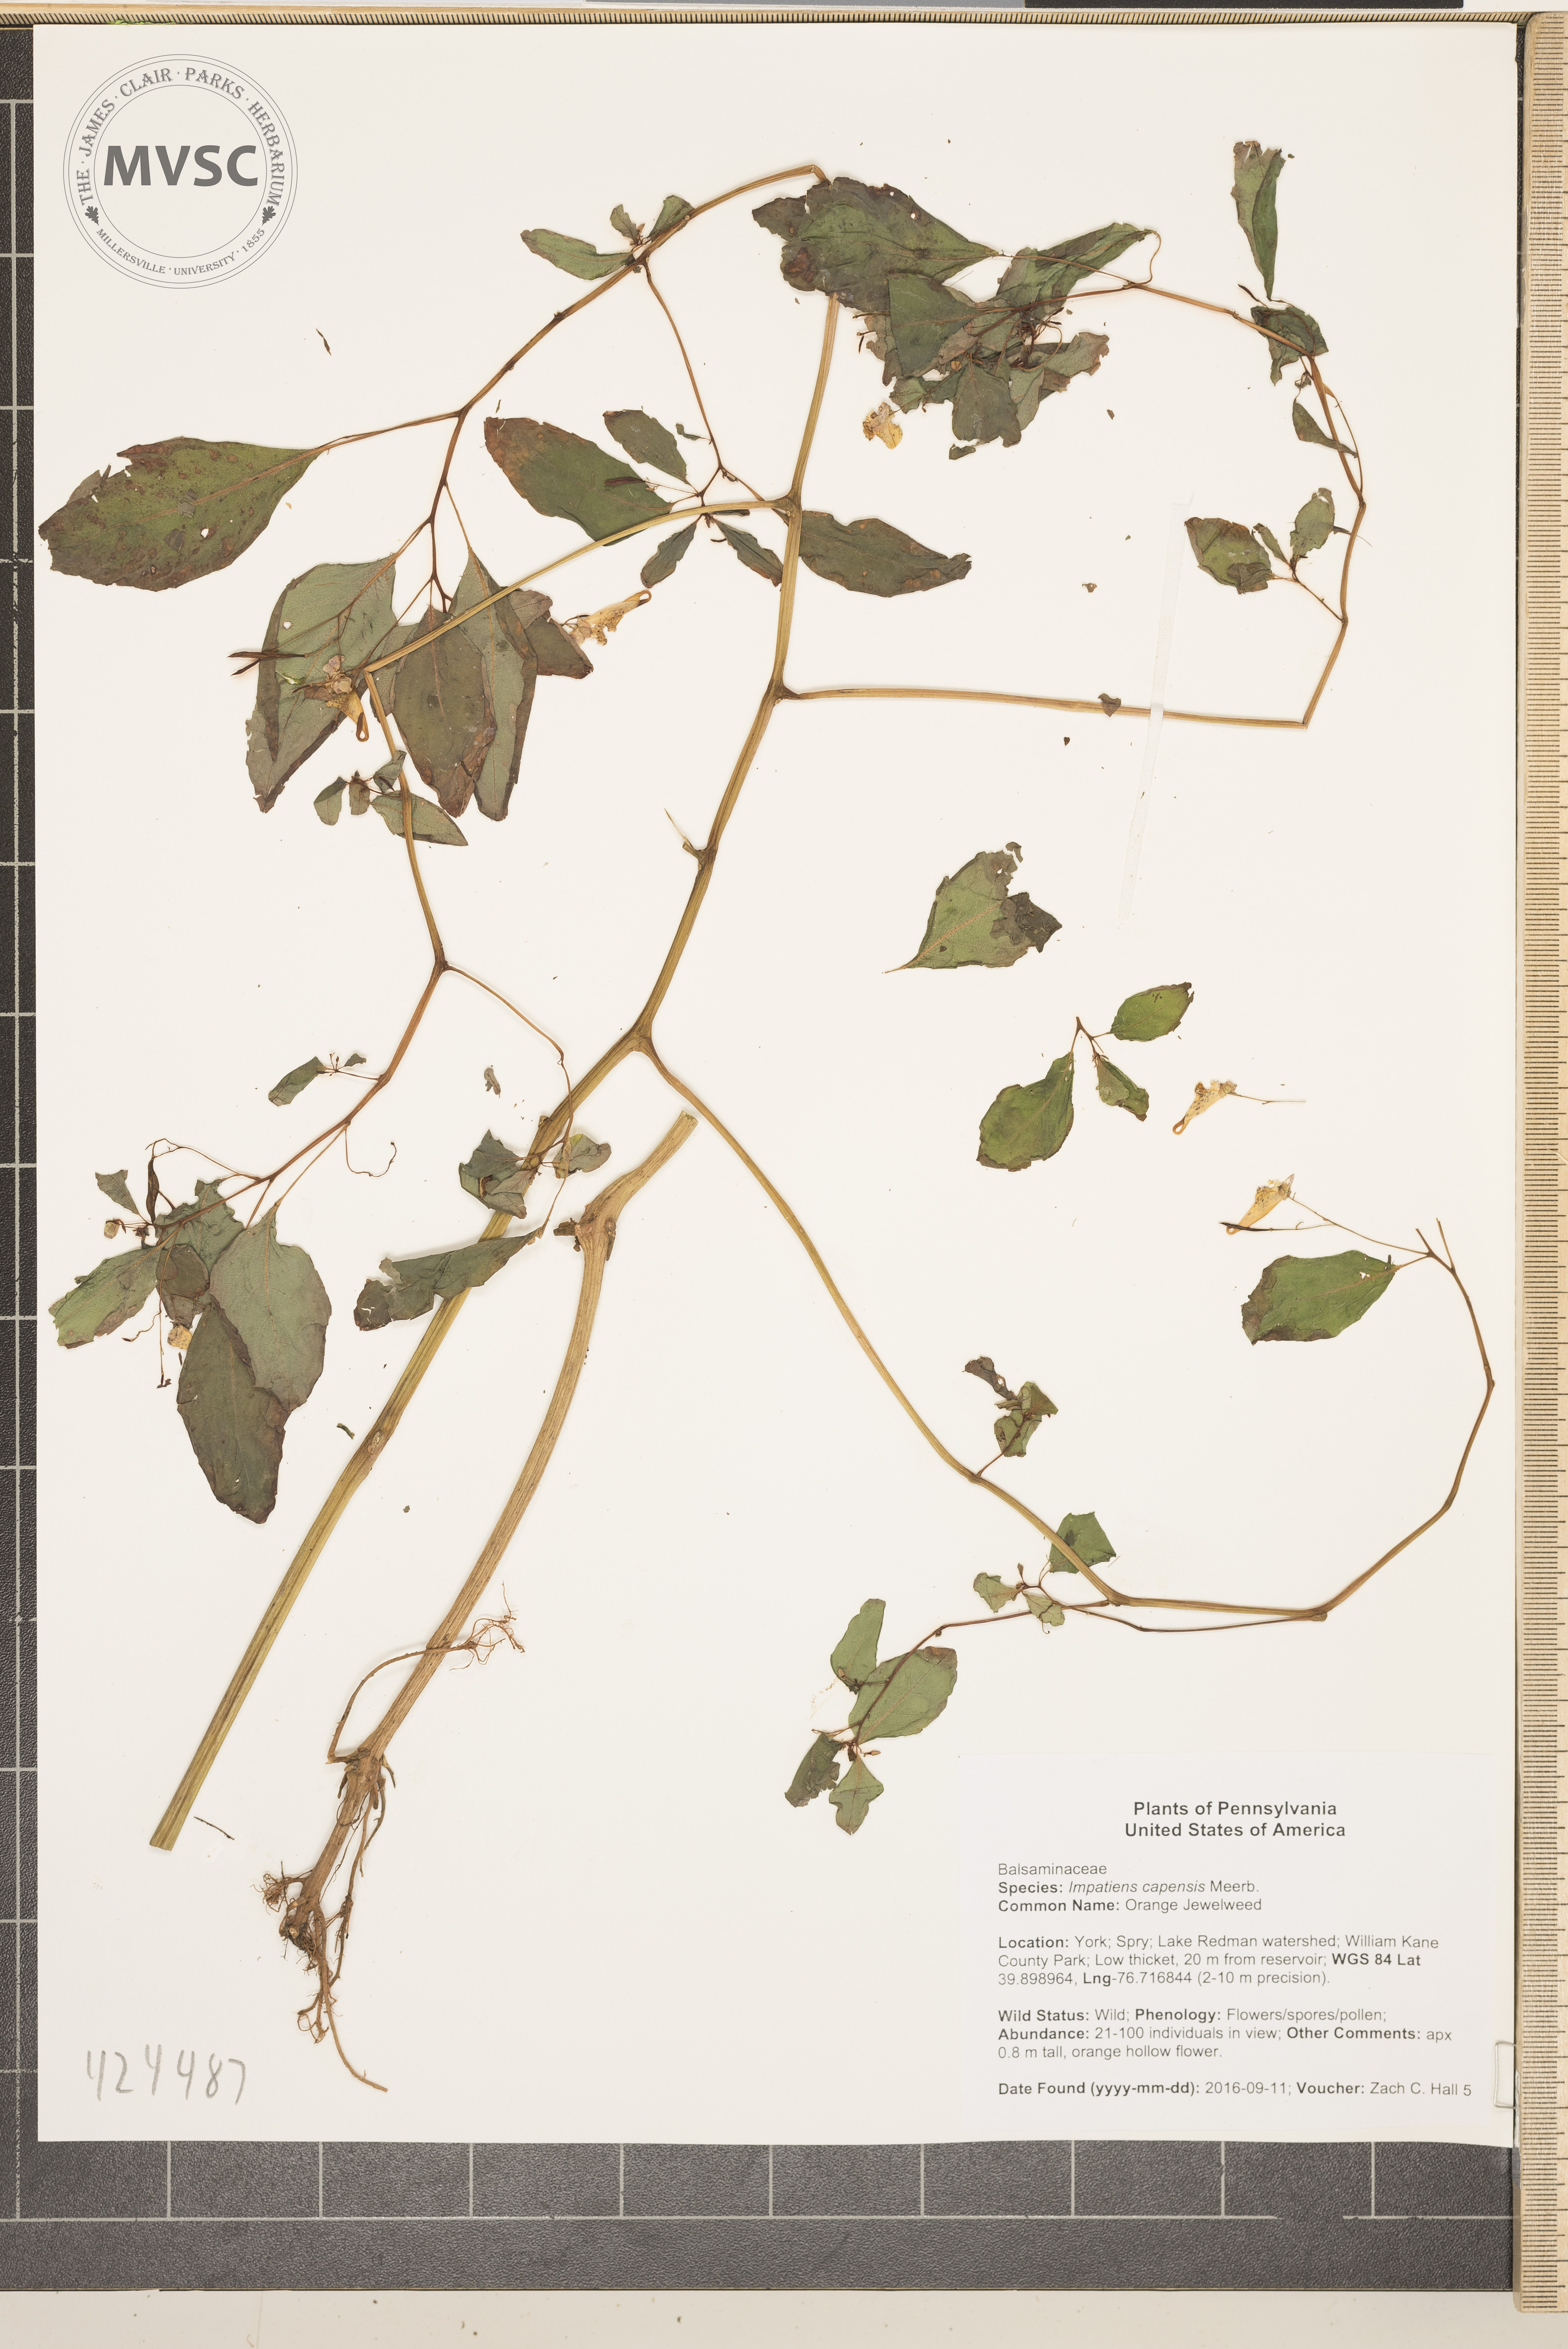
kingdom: Plantae
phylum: Tracheophyta
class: Magnoliopsida
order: Ericales
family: Balsaminaceae
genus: Impatiens
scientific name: Impatiens capensis
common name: Orange Jewelweed
